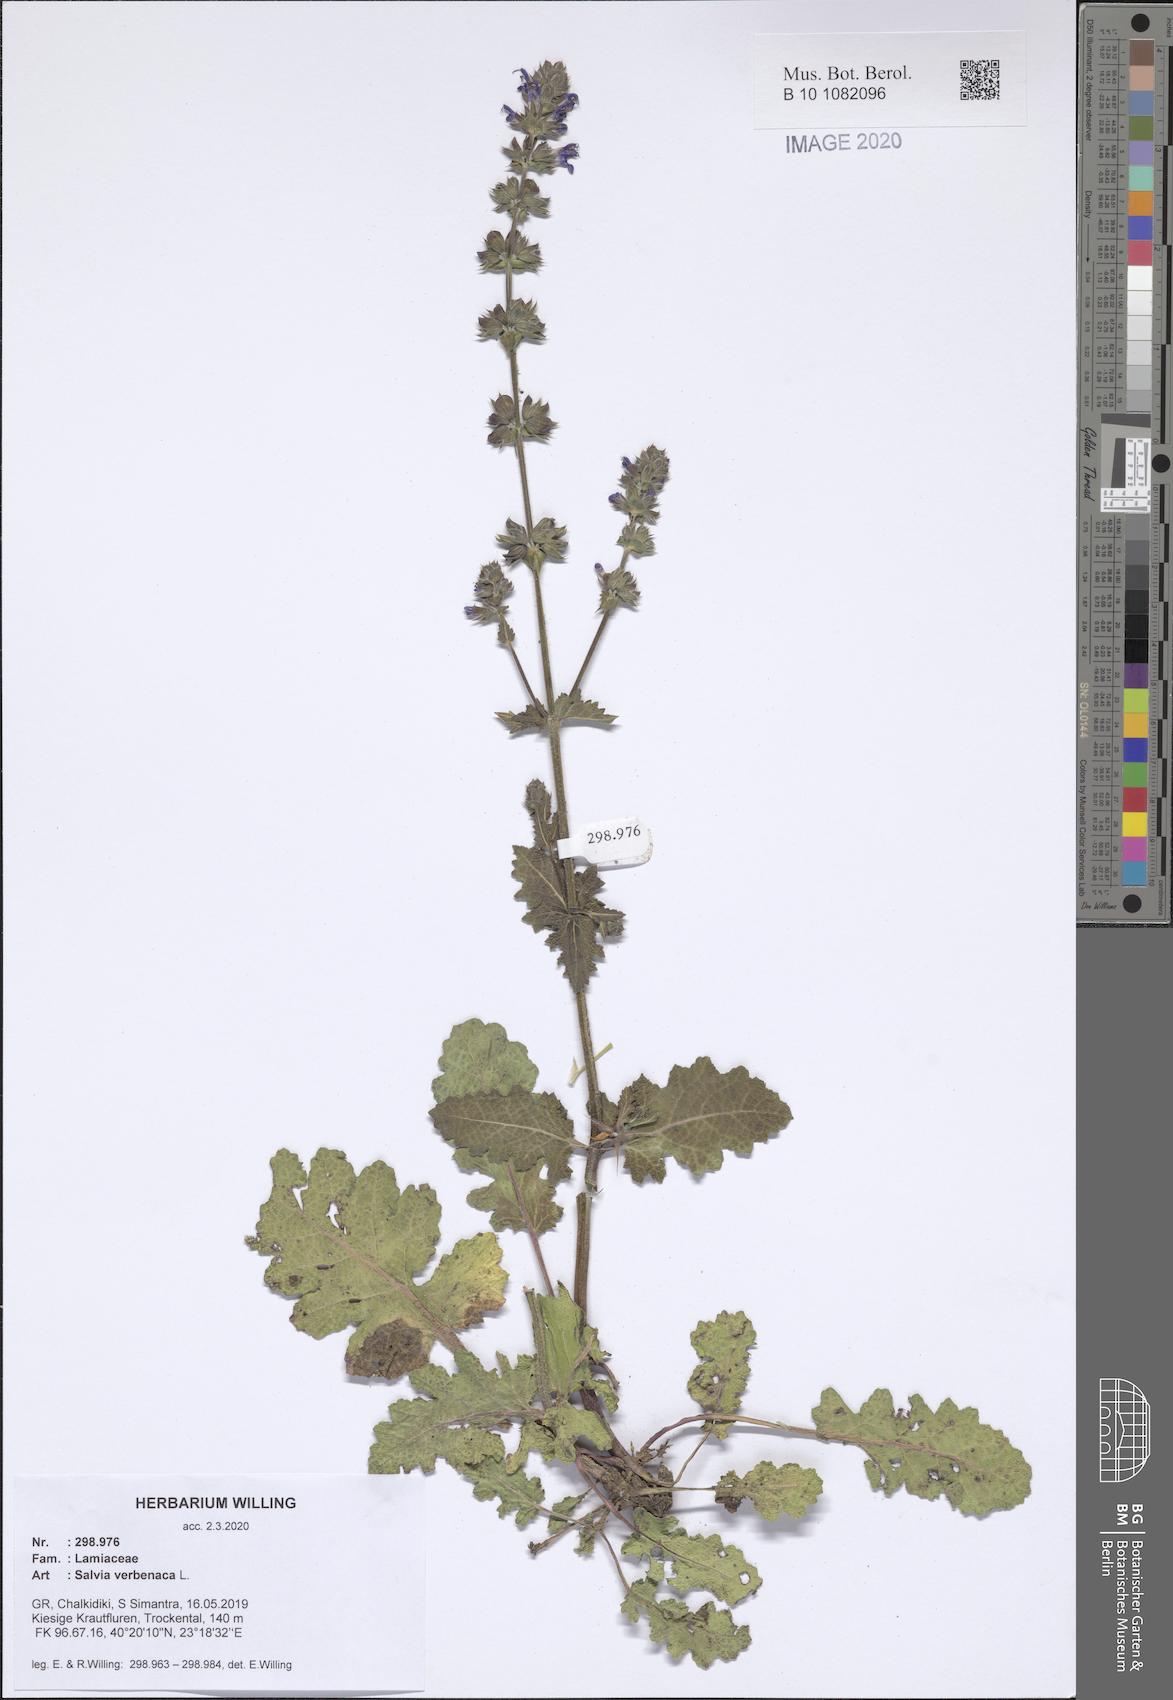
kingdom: Plantae
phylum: Tracheophyta
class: Magnoliopsida
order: Lamiales
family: Lamiaceae
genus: Salvia
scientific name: Salvia verbenaca
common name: Wild clary
